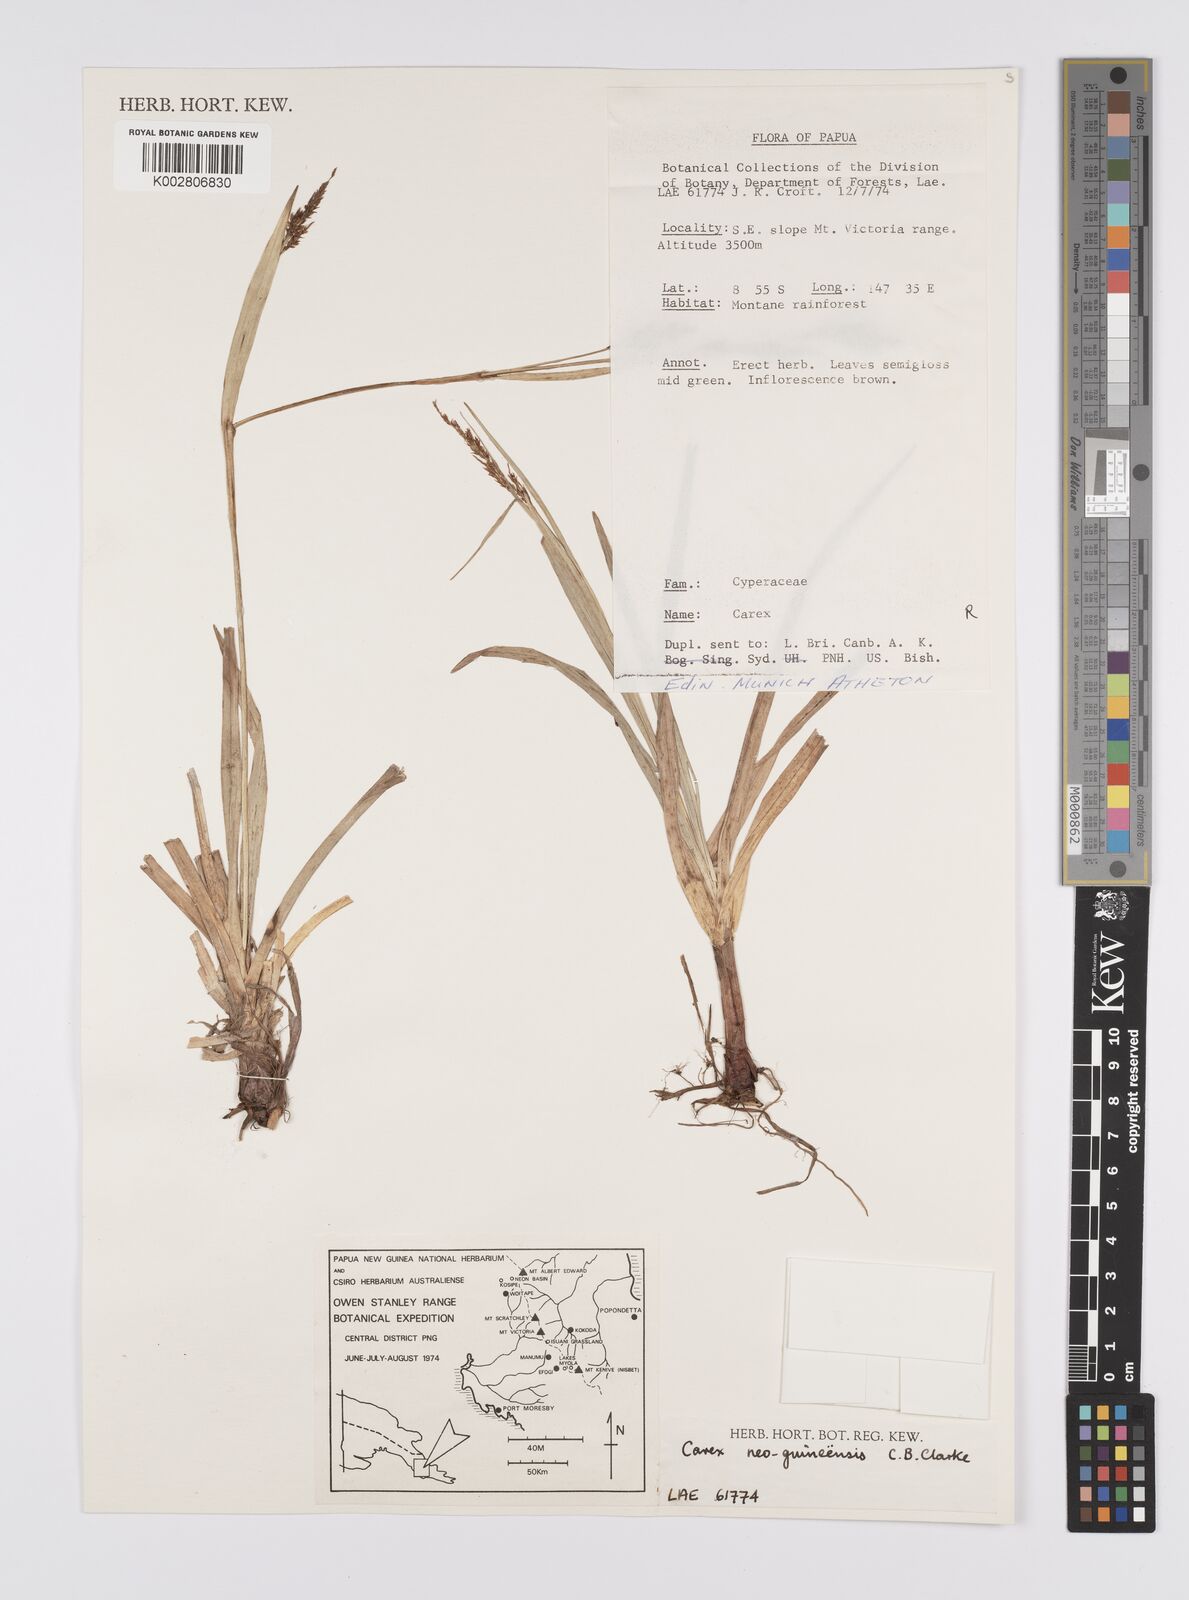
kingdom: Plantae
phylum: Tracheophyta
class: Liliopsida
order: Poales
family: Cyperaceae
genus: Carex
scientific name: Carex filicina
